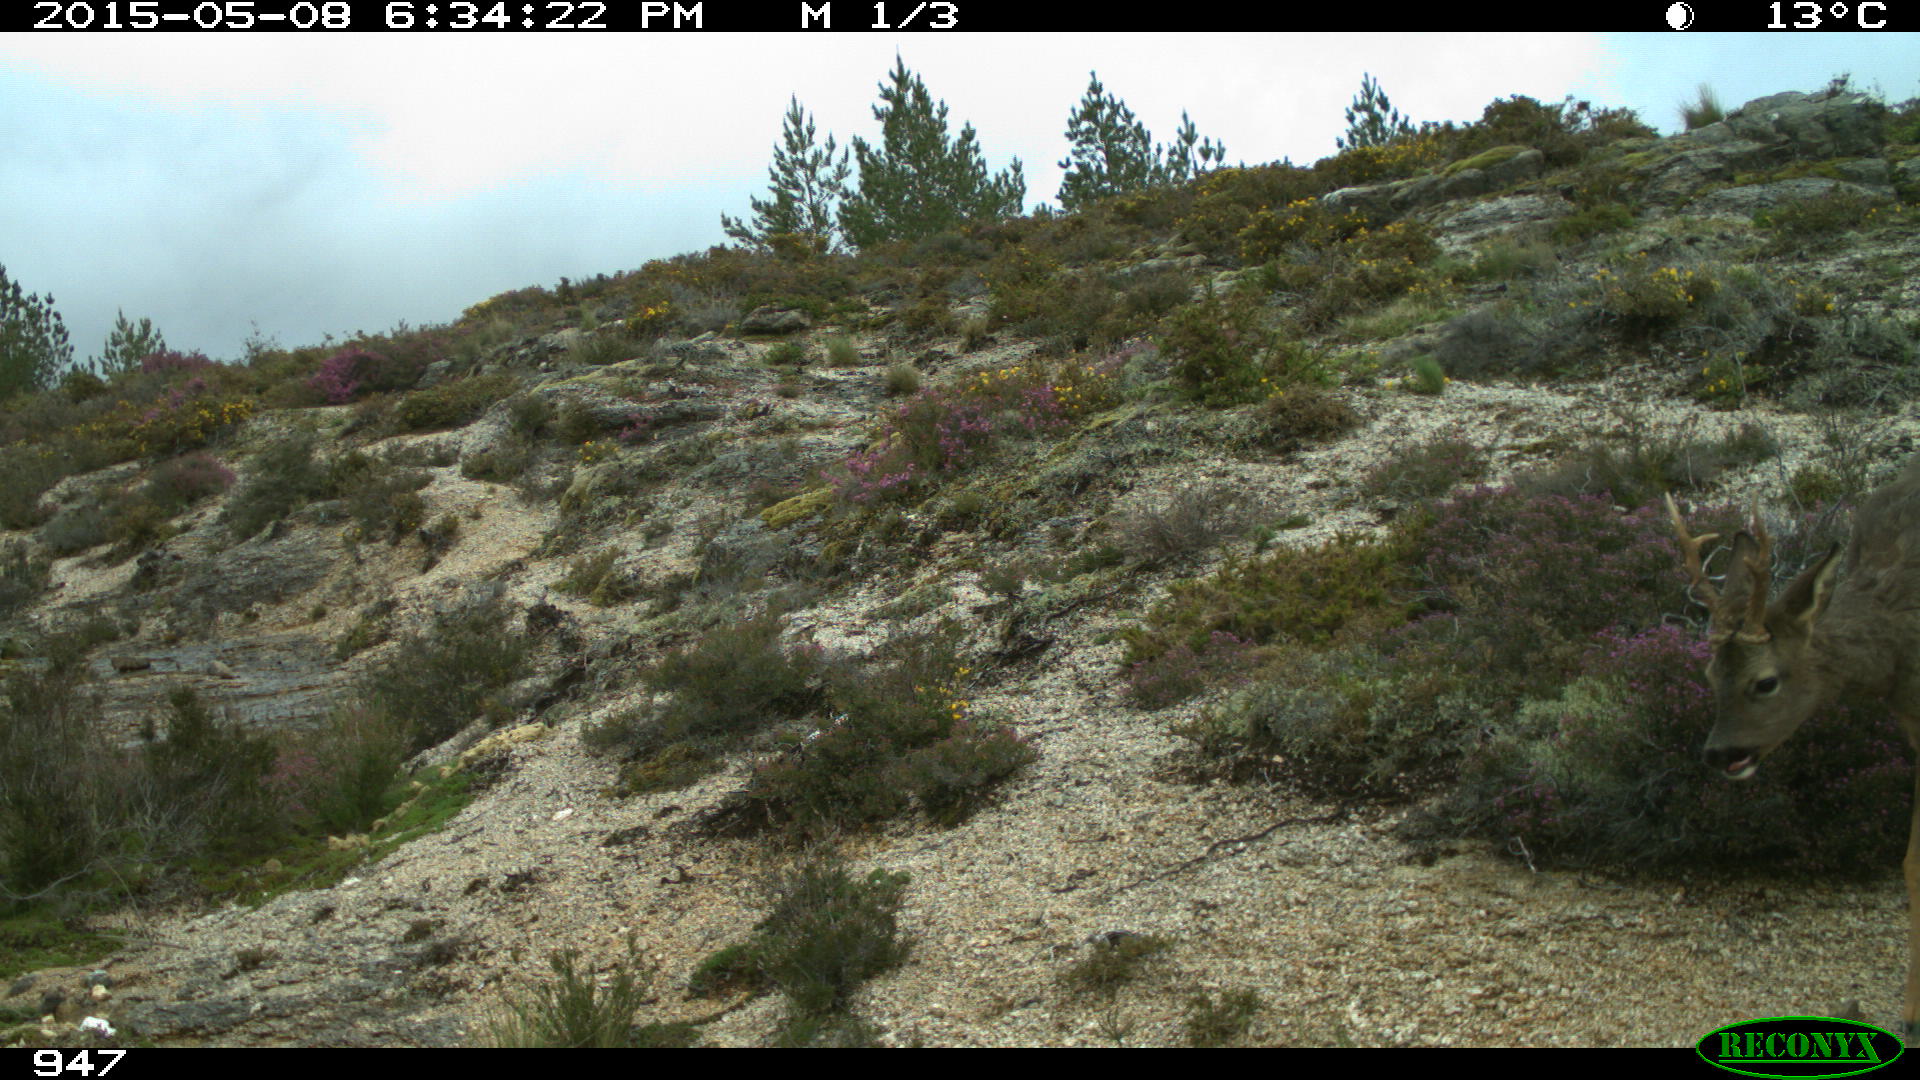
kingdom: Animalia
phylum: Chordata
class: Mammalia
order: Artiodactyla
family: Cervidae
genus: Capreolus
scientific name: Capreolus capreolus
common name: Western roe deer
